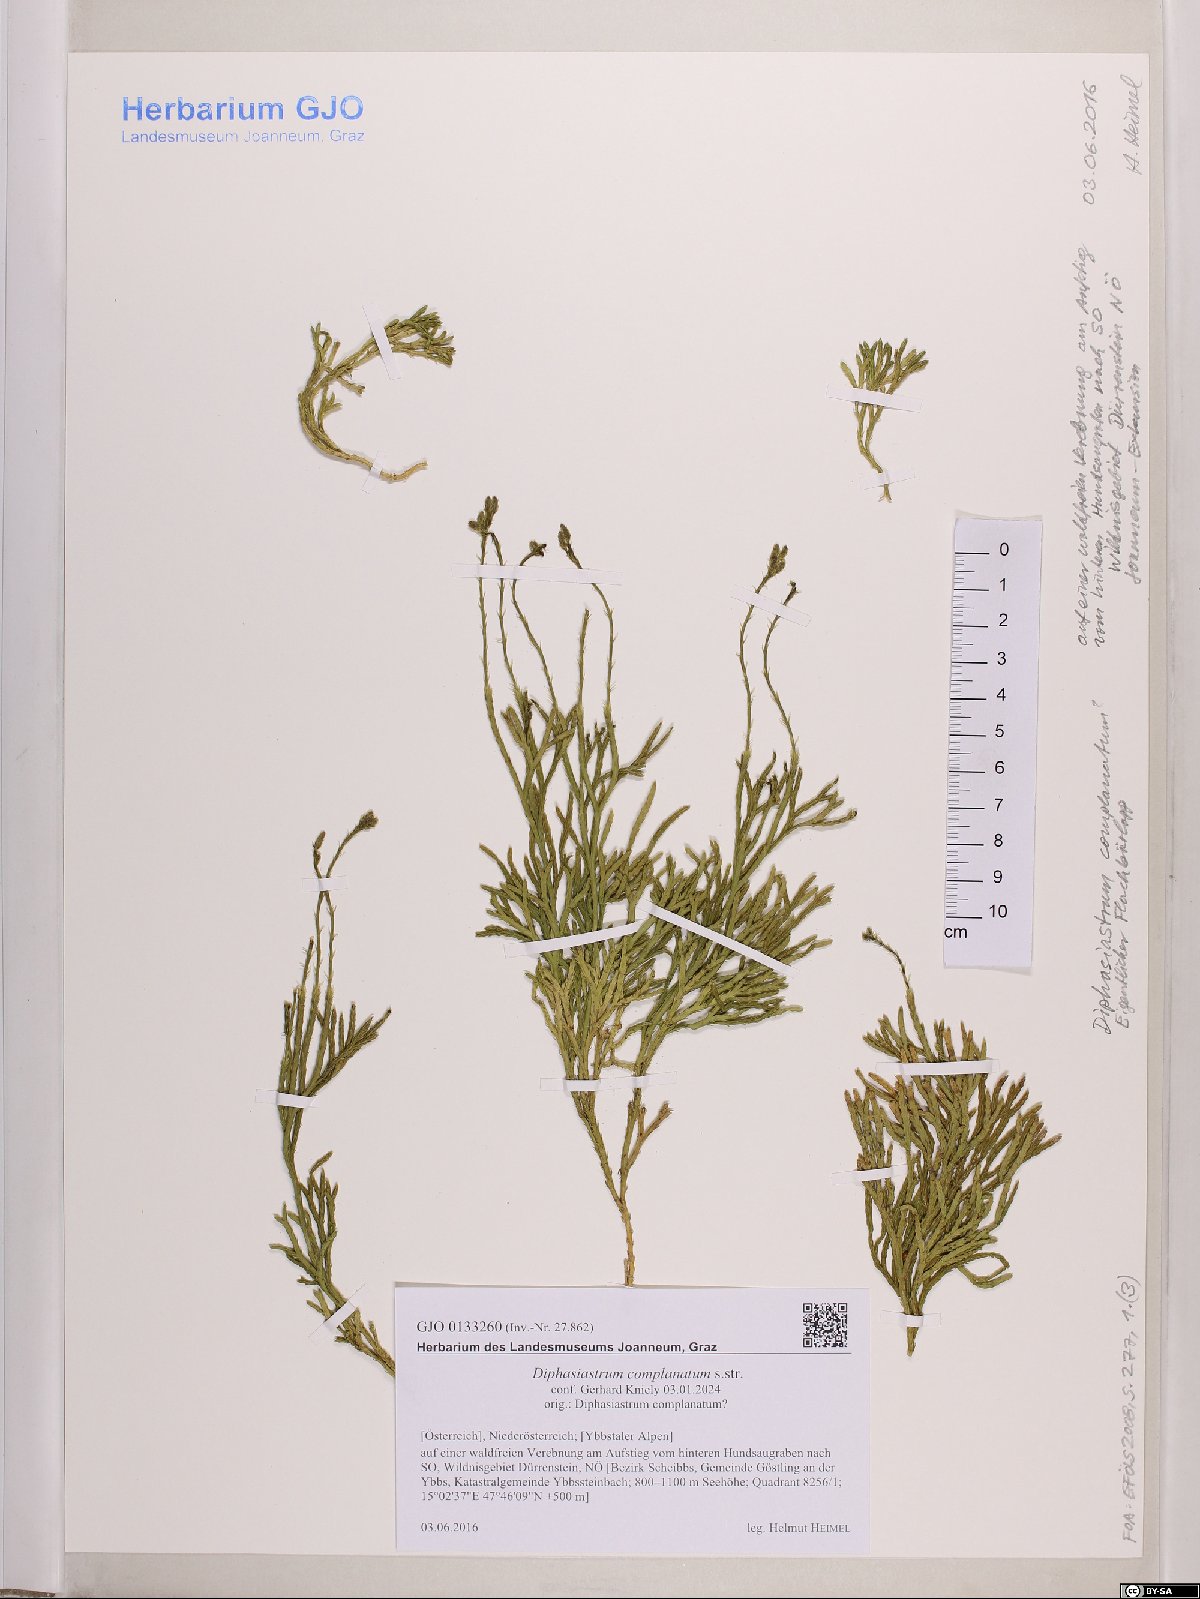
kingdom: Plantae
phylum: Tracheophyta
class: Lycopodiopsida
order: Lycopodiales
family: Lycopodiaceae
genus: Diphasiastrum
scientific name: Diphasiastrum complanatum
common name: Northern running-pine
